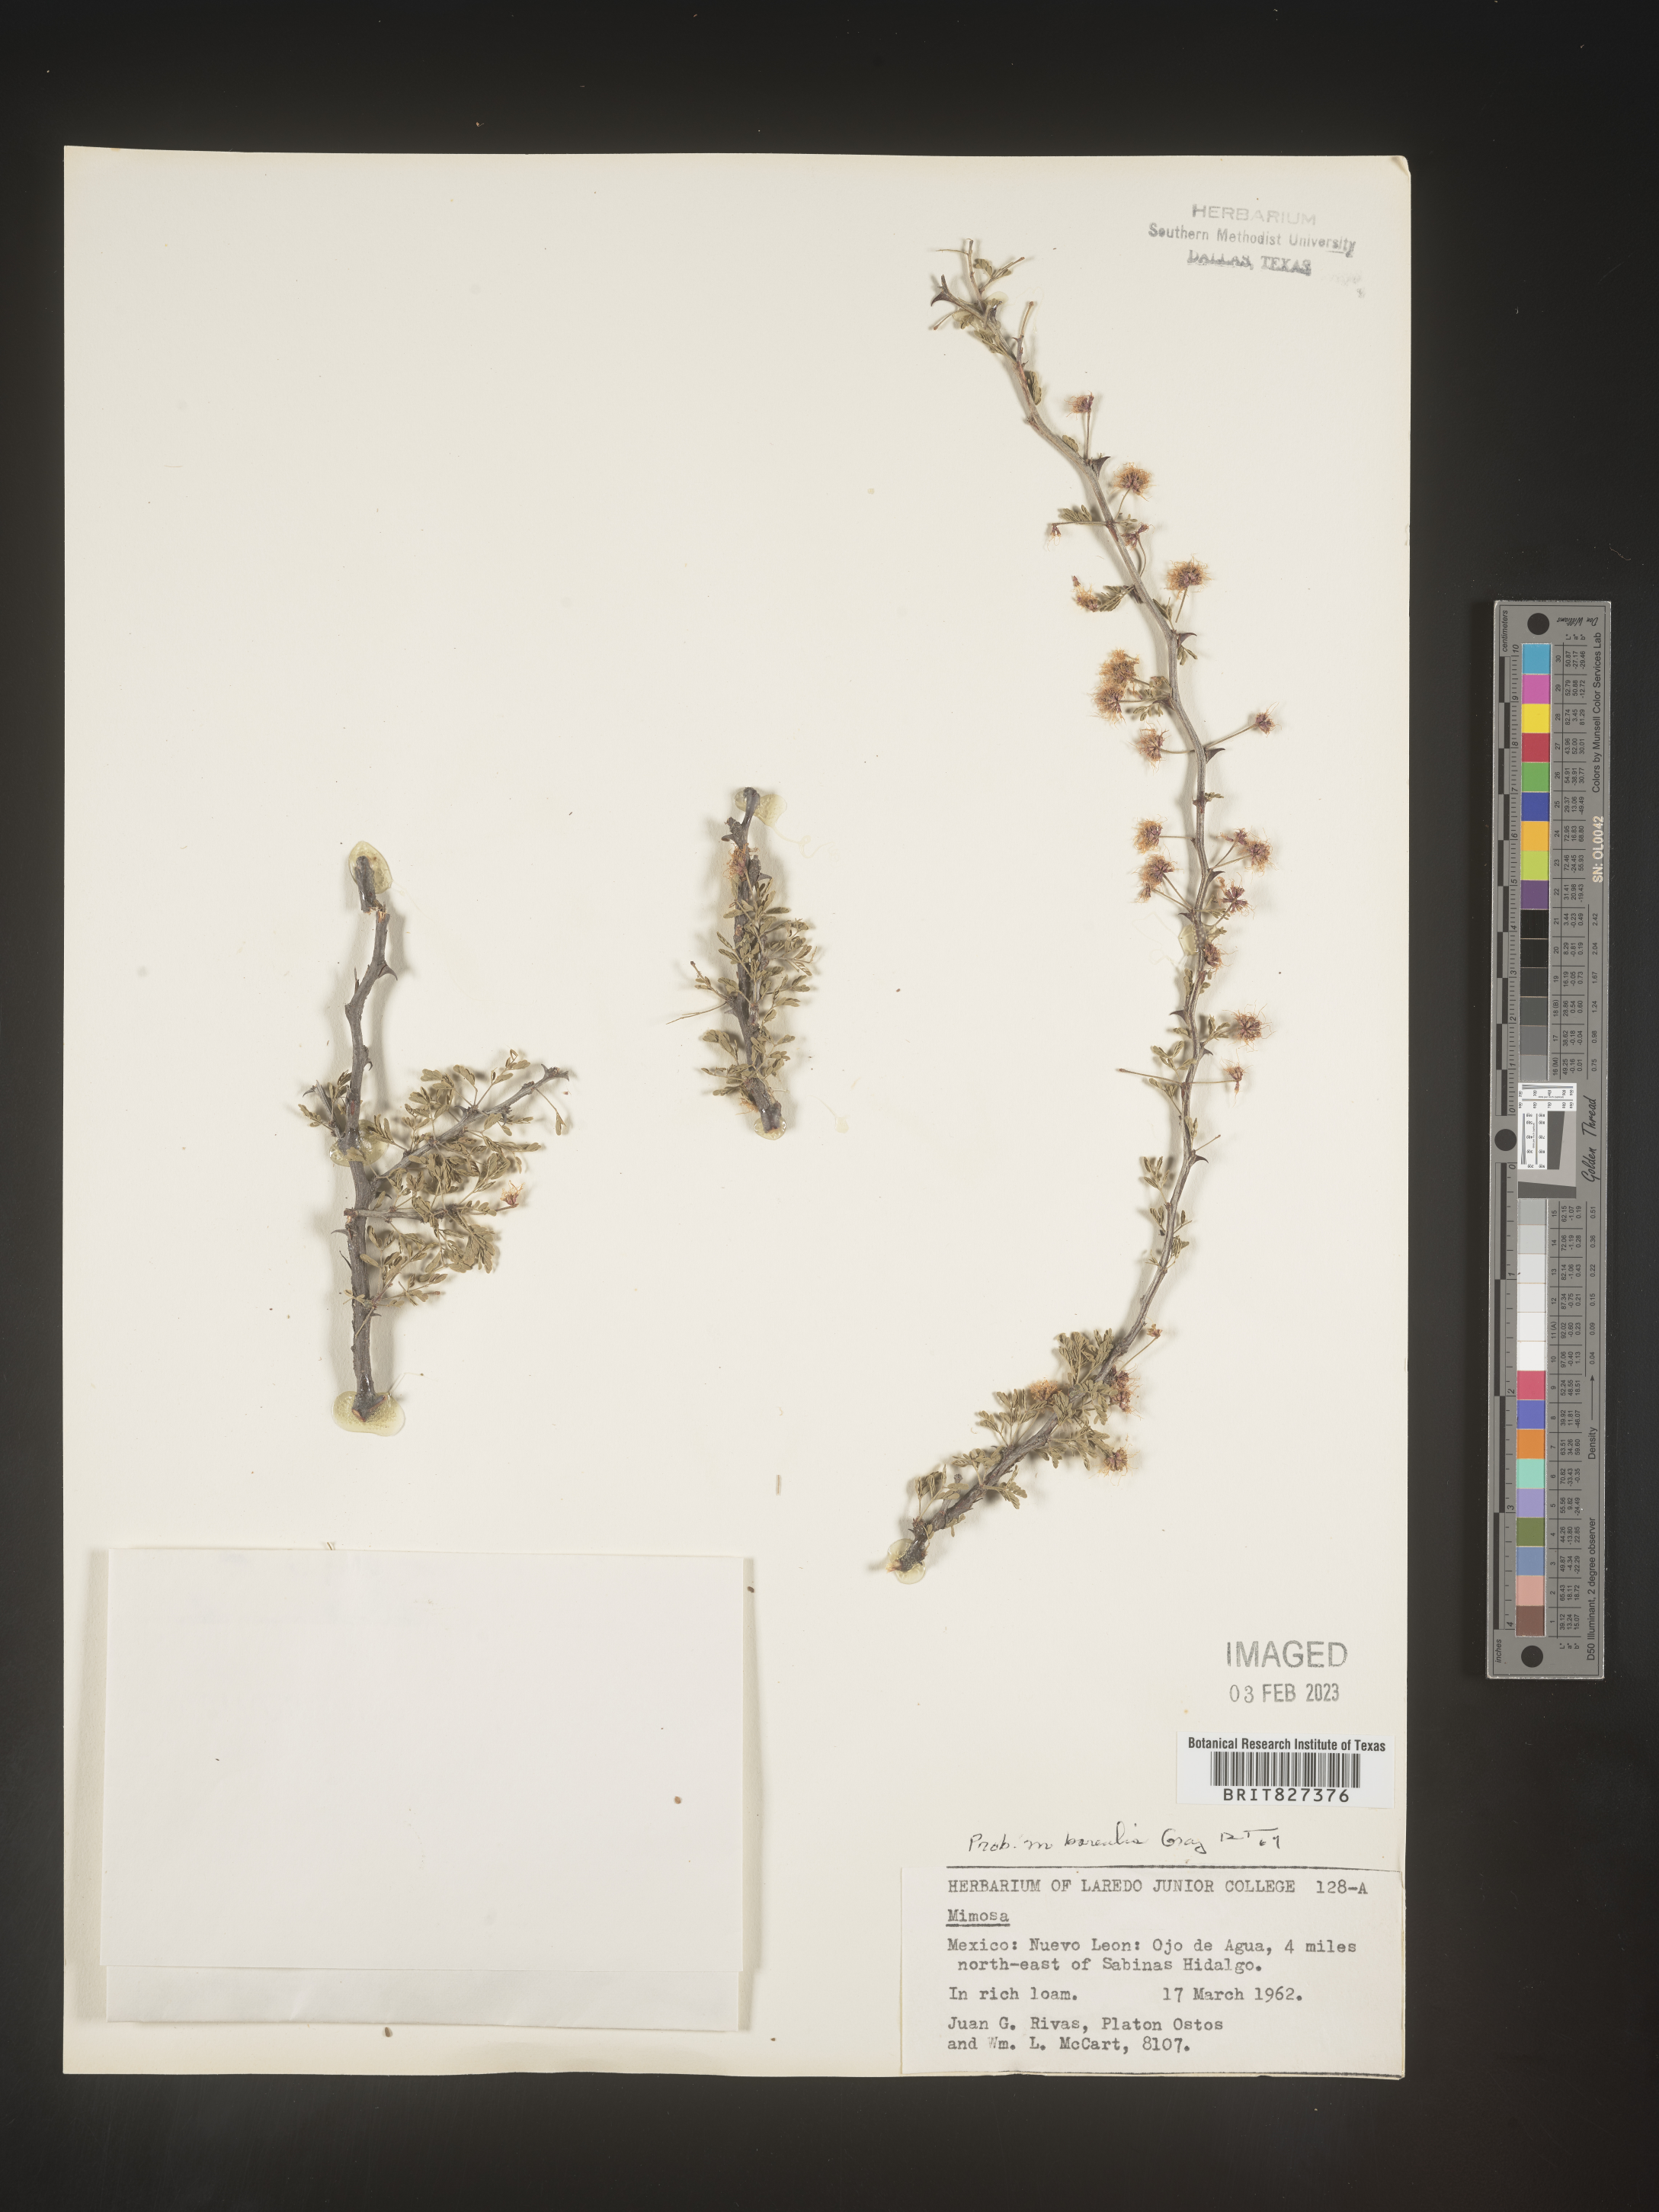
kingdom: Plantae
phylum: Tracheophyta
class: Magnoliopsida
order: Fabales
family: Fabaceae
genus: Mimosa
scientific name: Mimosa
